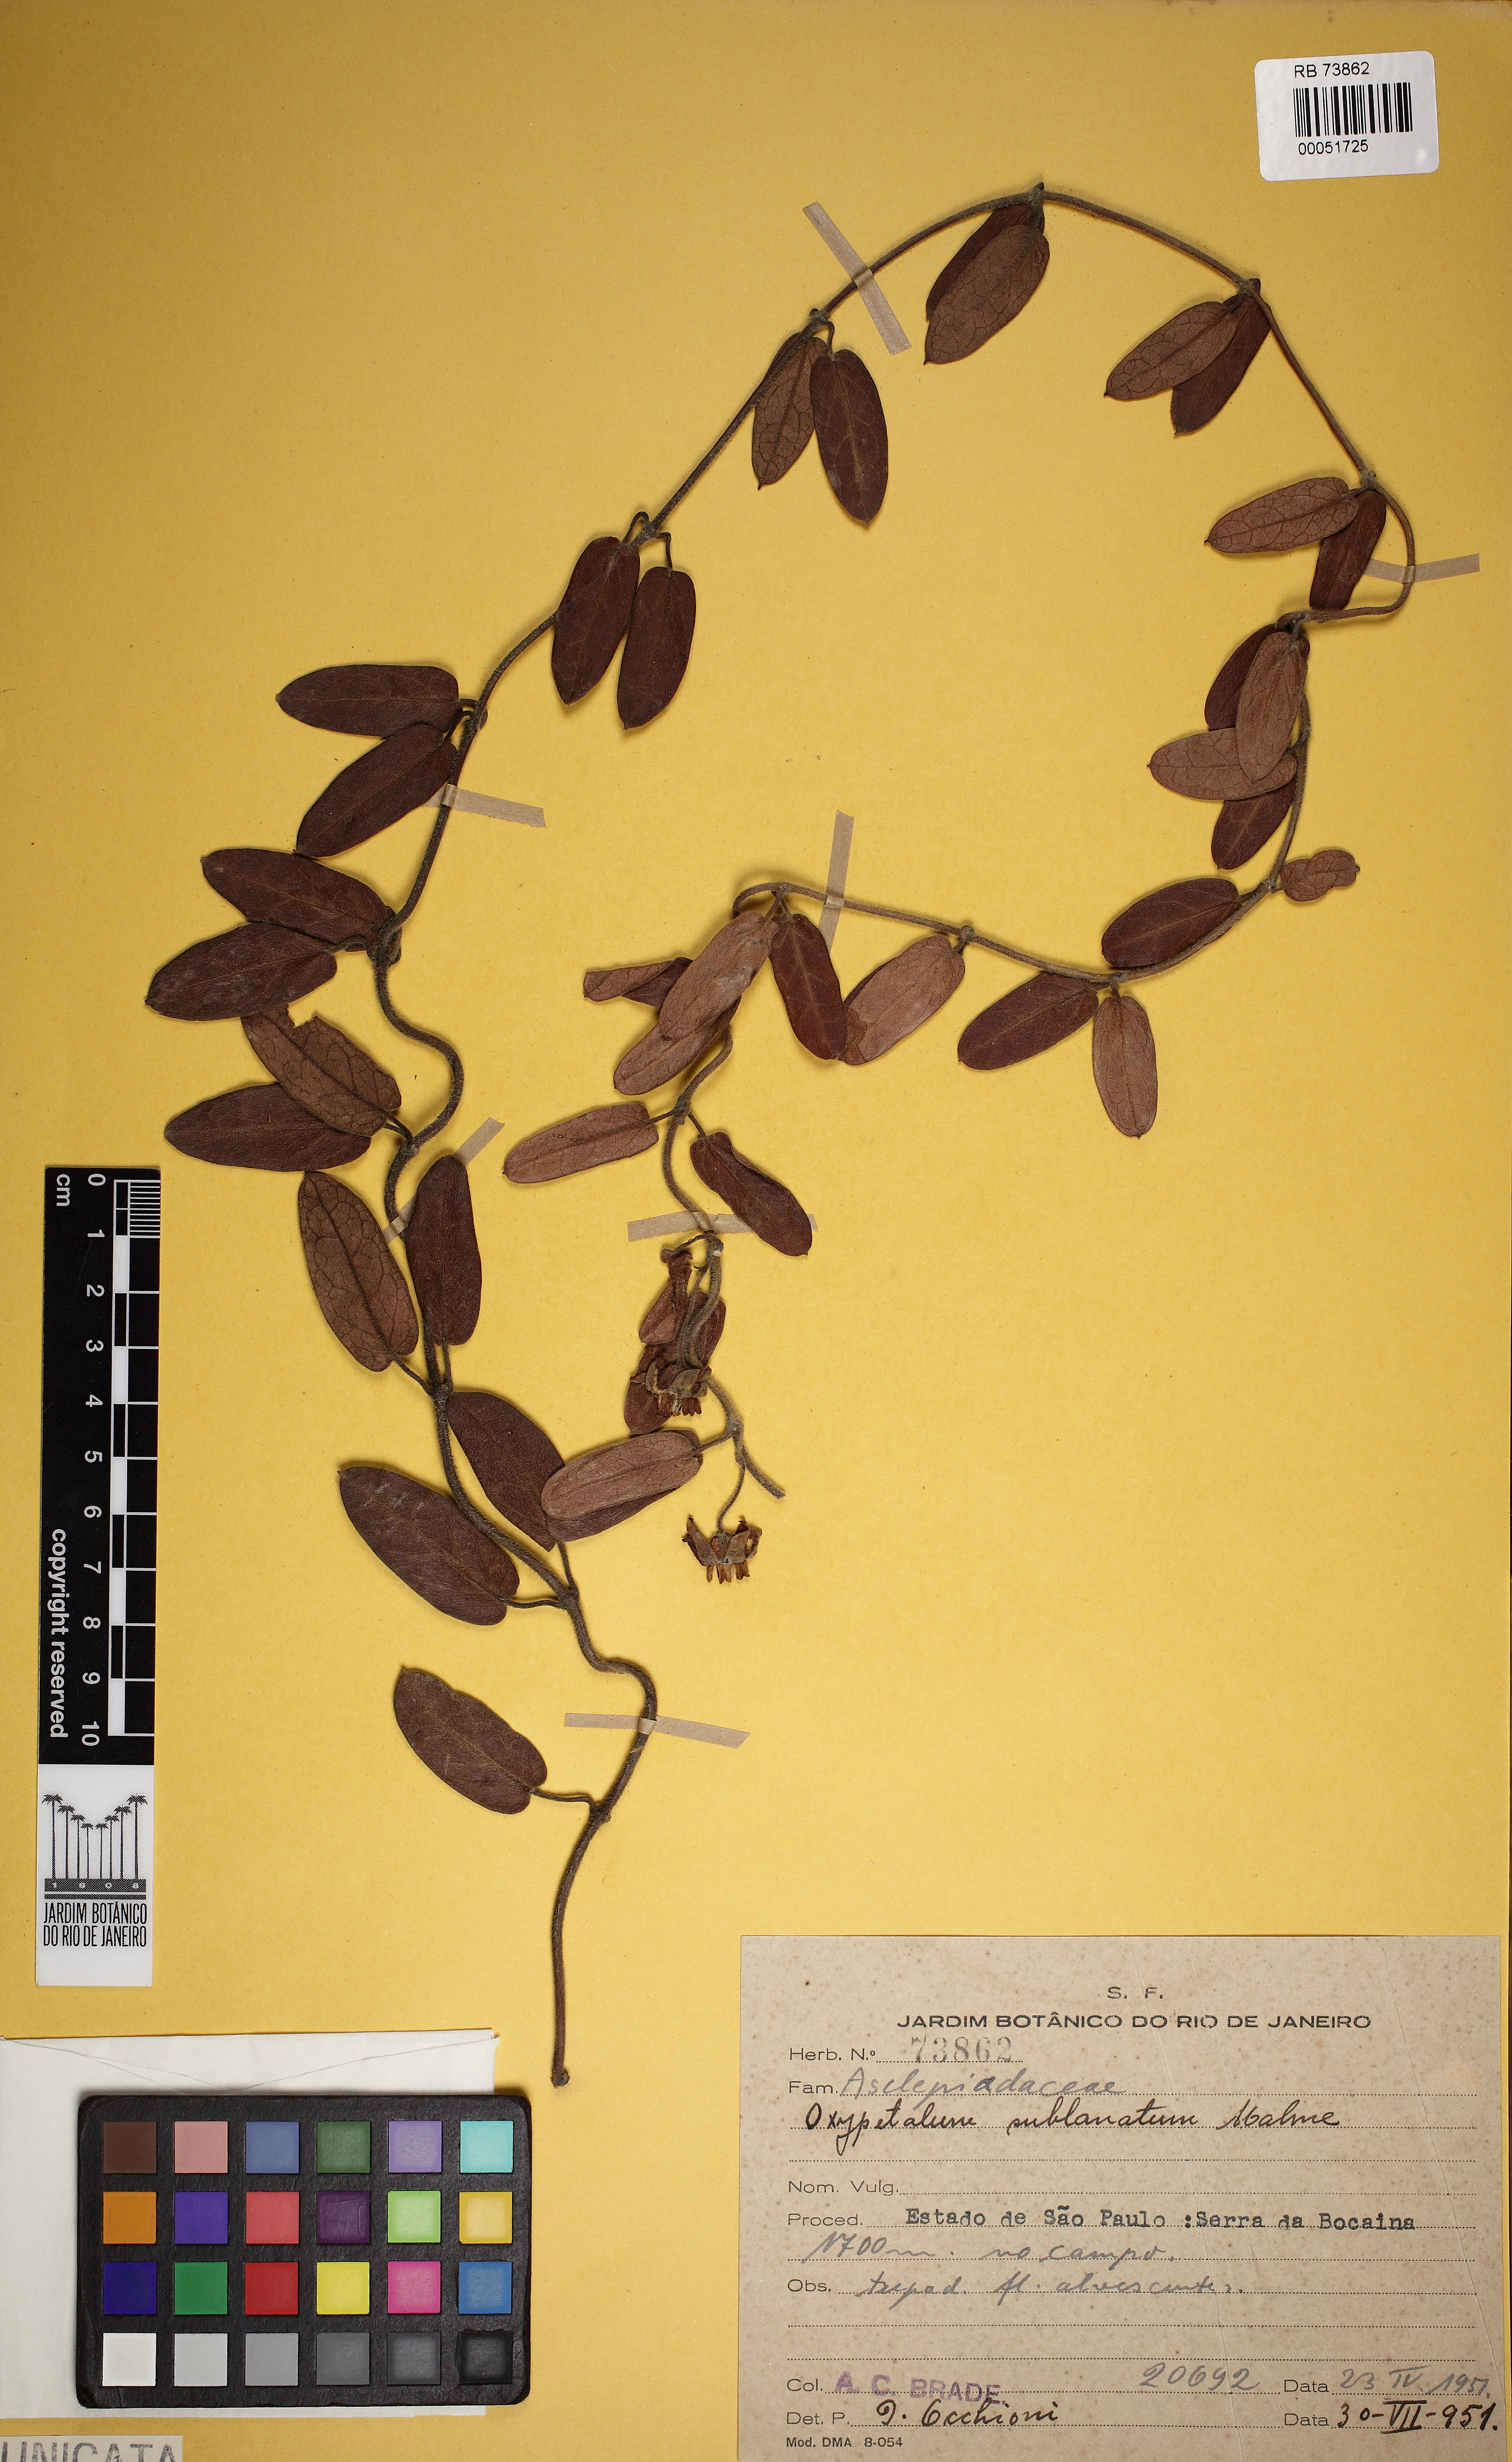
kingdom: Plantae
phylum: Tracheophyta
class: Magnoliopsida
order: Gentianales
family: Apocynaceae
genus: Oxypetalum
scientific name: Oxypetalum sublanatum
